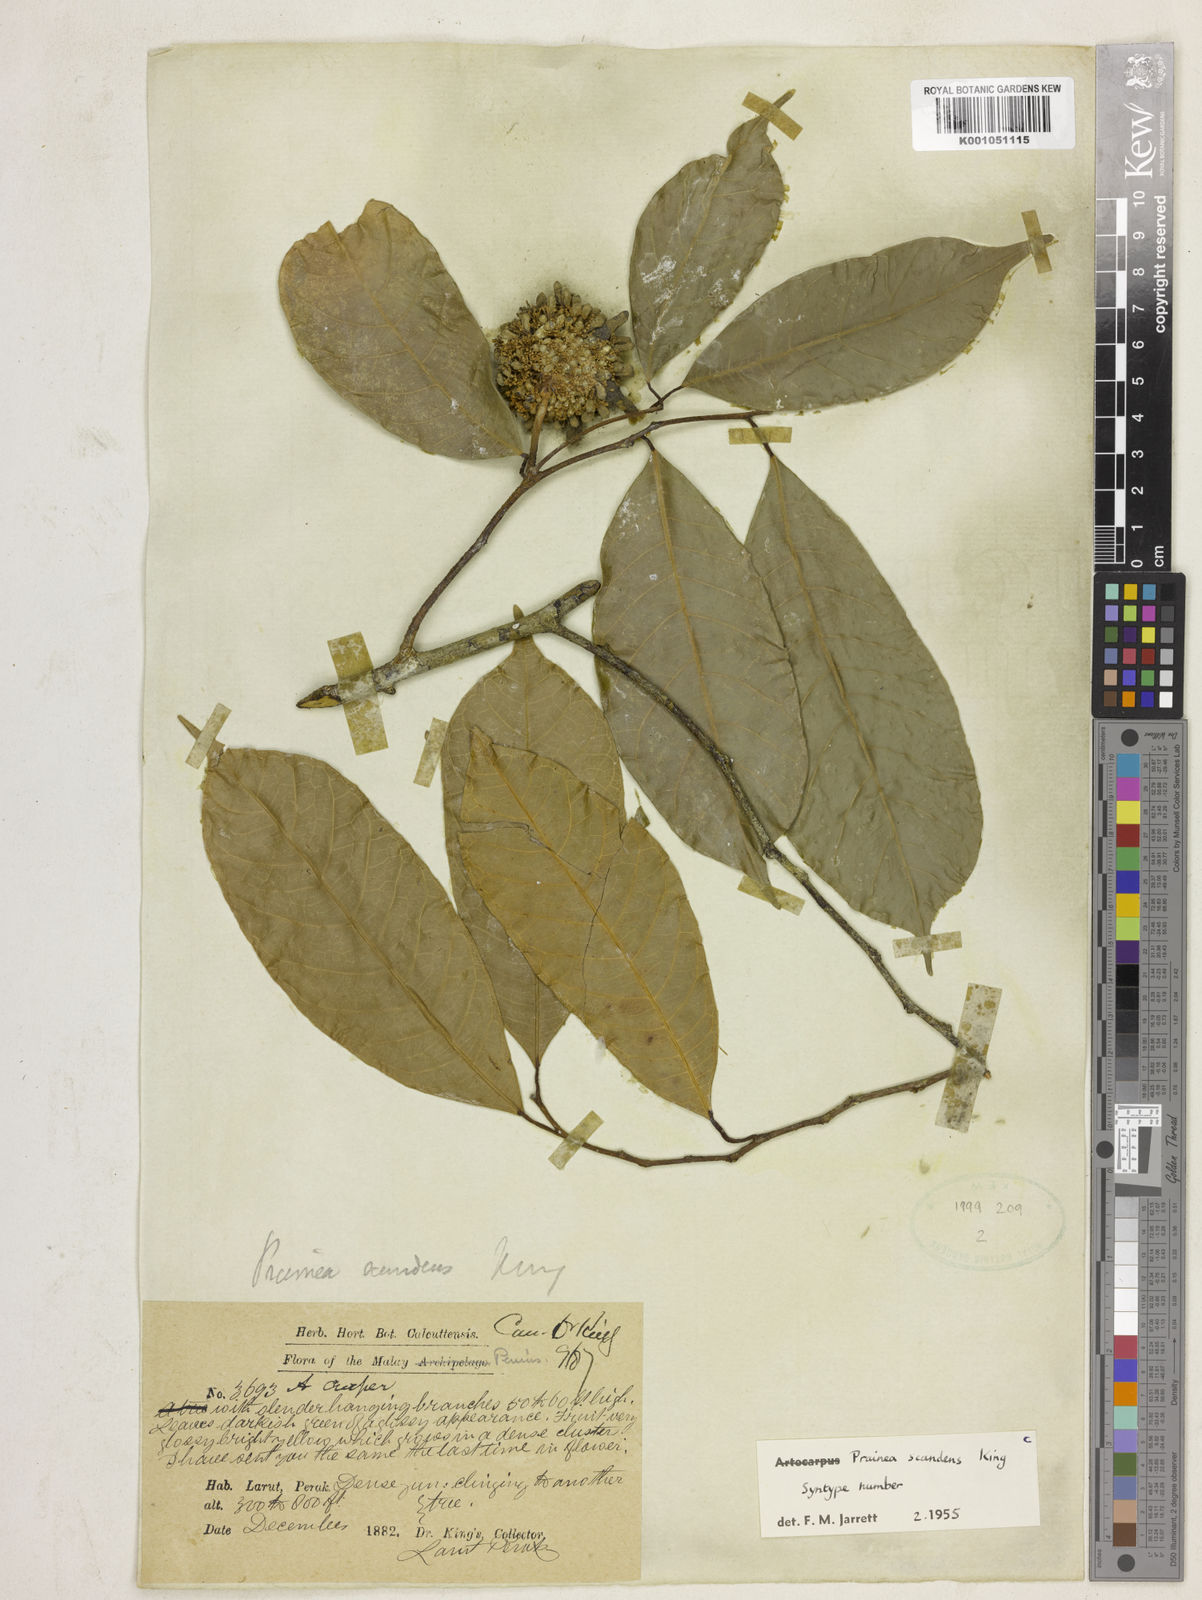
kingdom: Plantae
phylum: Tracheophyta
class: Magnoliopsida
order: Rosales
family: Moraceae
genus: Prainea
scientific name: Prainea scandens
